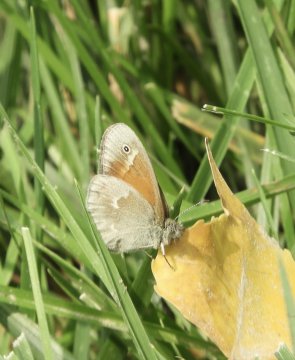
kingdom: Animalia
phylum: Arthropoda
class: Insecta
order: Lepidoptera
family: Nymphalidae
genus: Coenonympha
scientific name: Coenonympha tullia
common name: Large Heath
